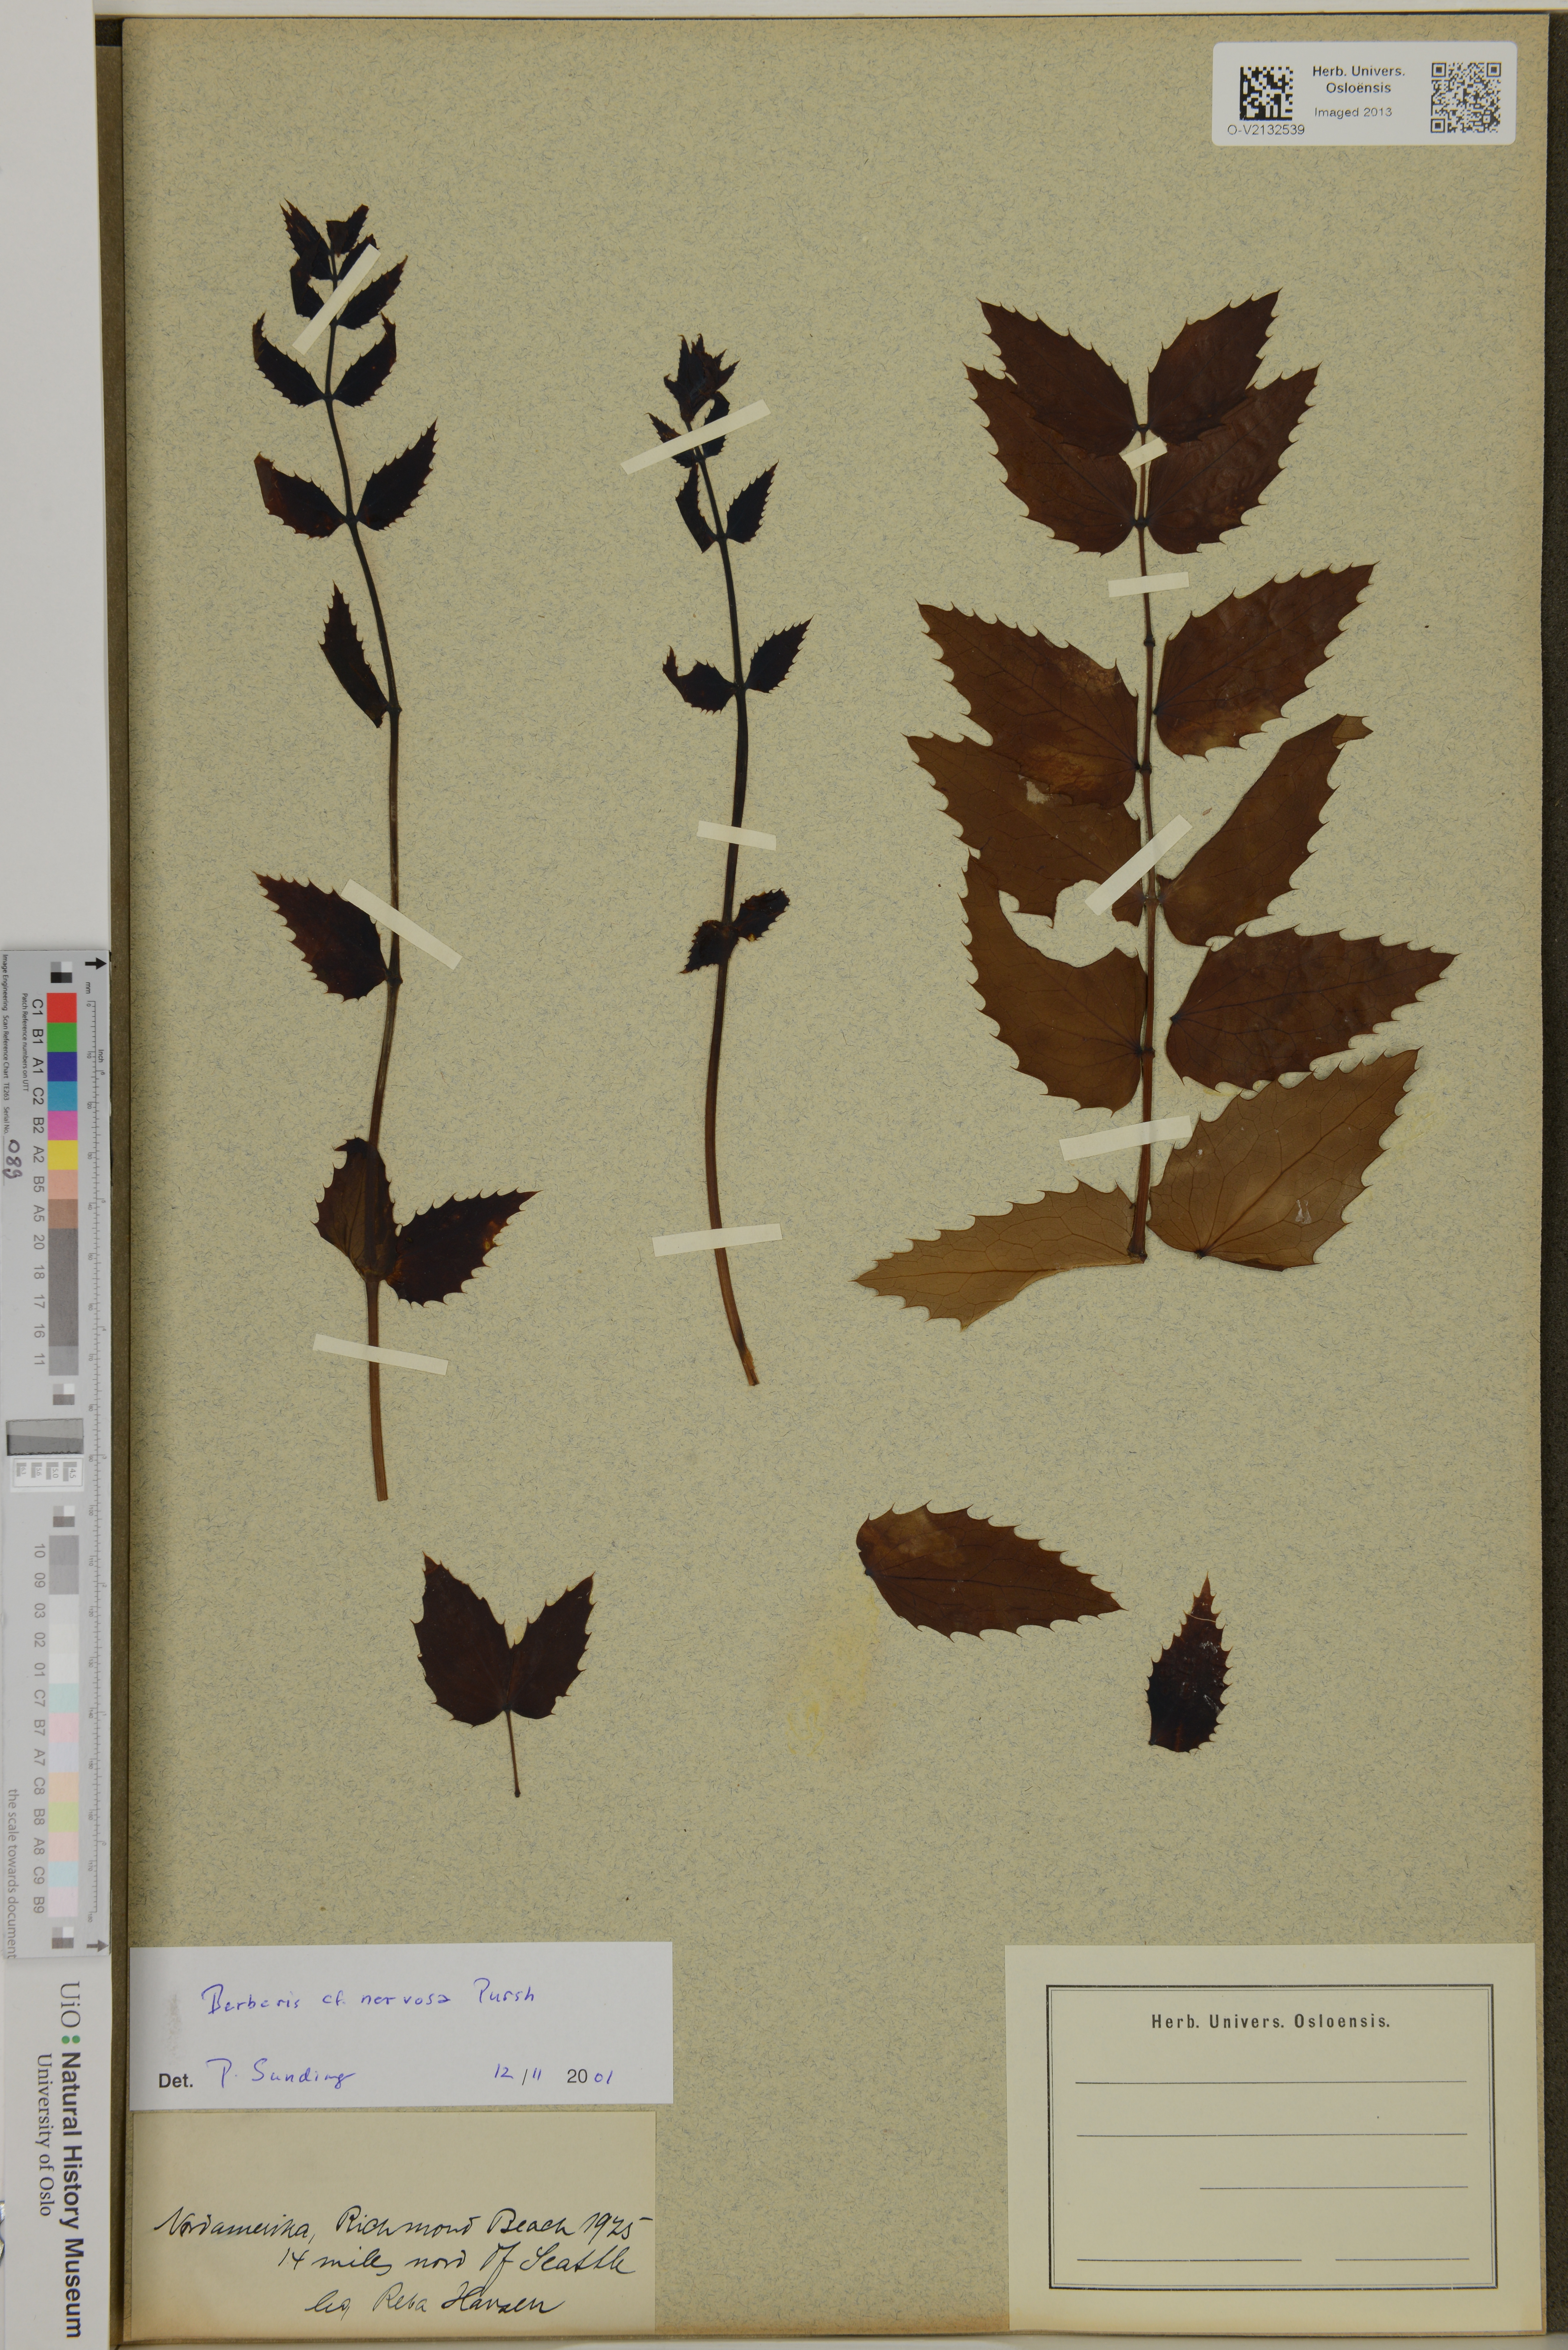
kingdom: Plantae
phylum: Tracheophyta
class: Magnoliopsida
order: Ranunculales
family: Berberidaceae
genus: Mahonia
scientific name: Mahonia nervosa
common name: Cascade oregon-grape
